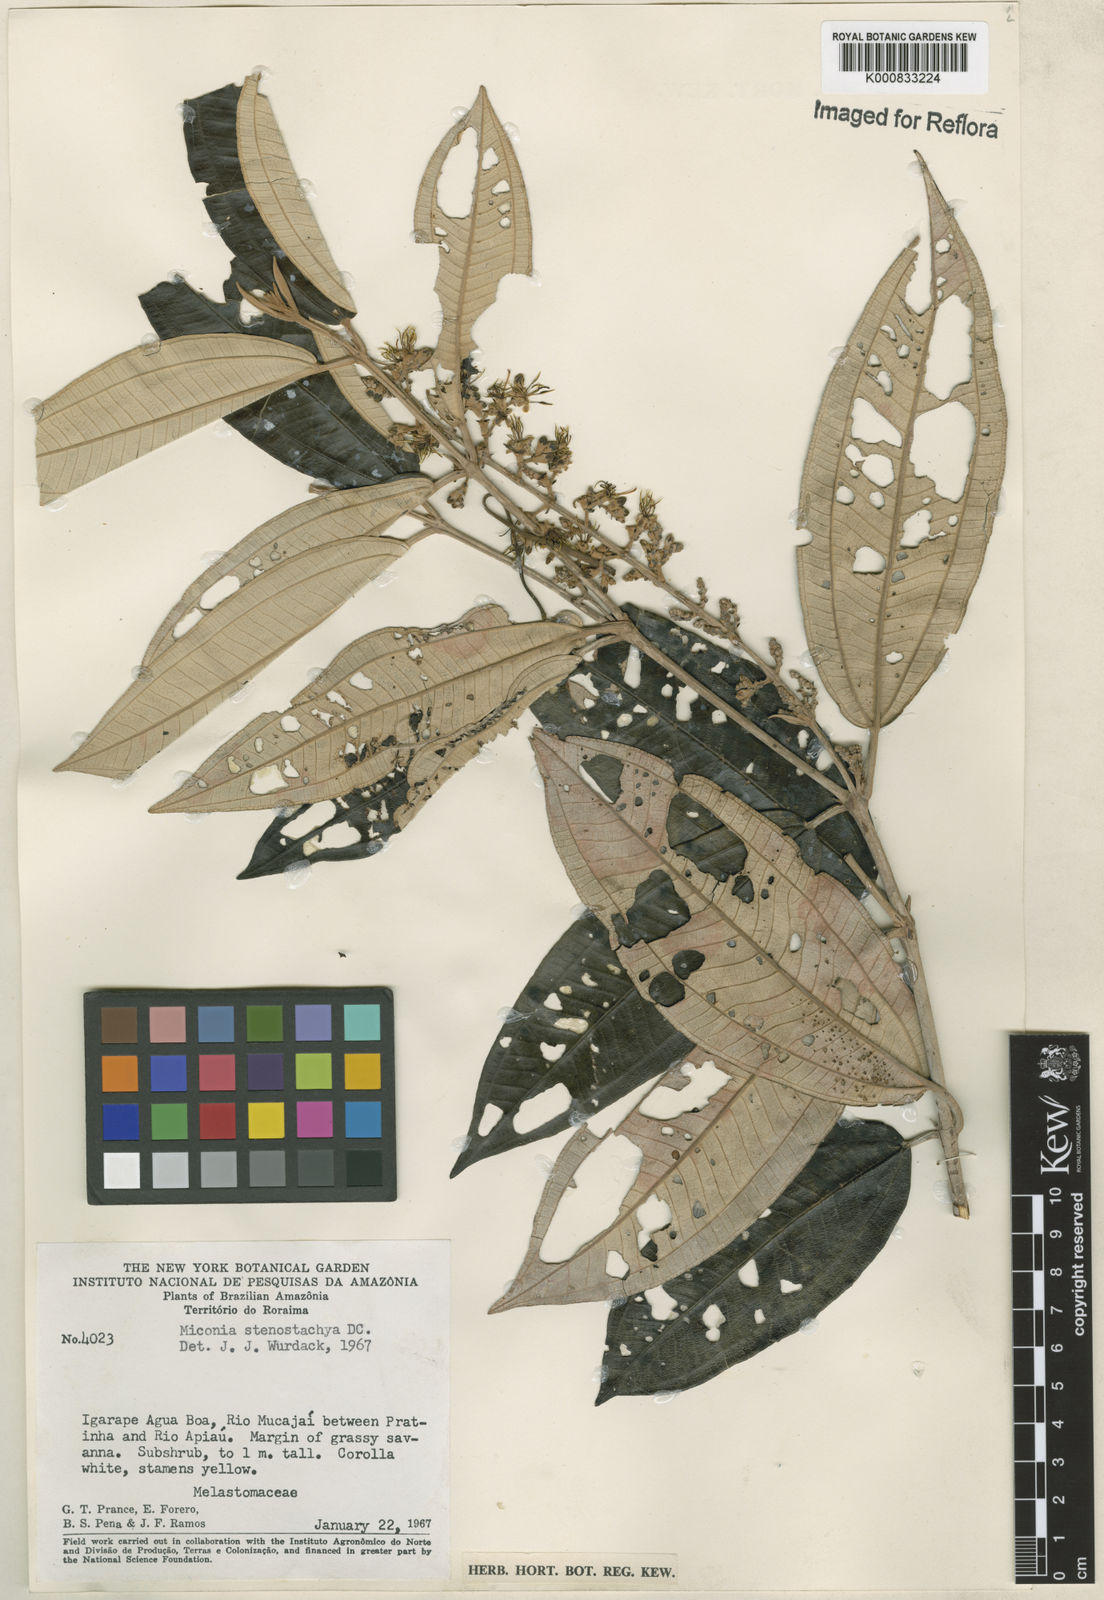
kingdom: Plantae
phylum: Tracheophyta
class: Magnoliopsida
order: Myrtales
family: Melastomataceae
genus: Miconia
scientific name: Miconia stenostachya
